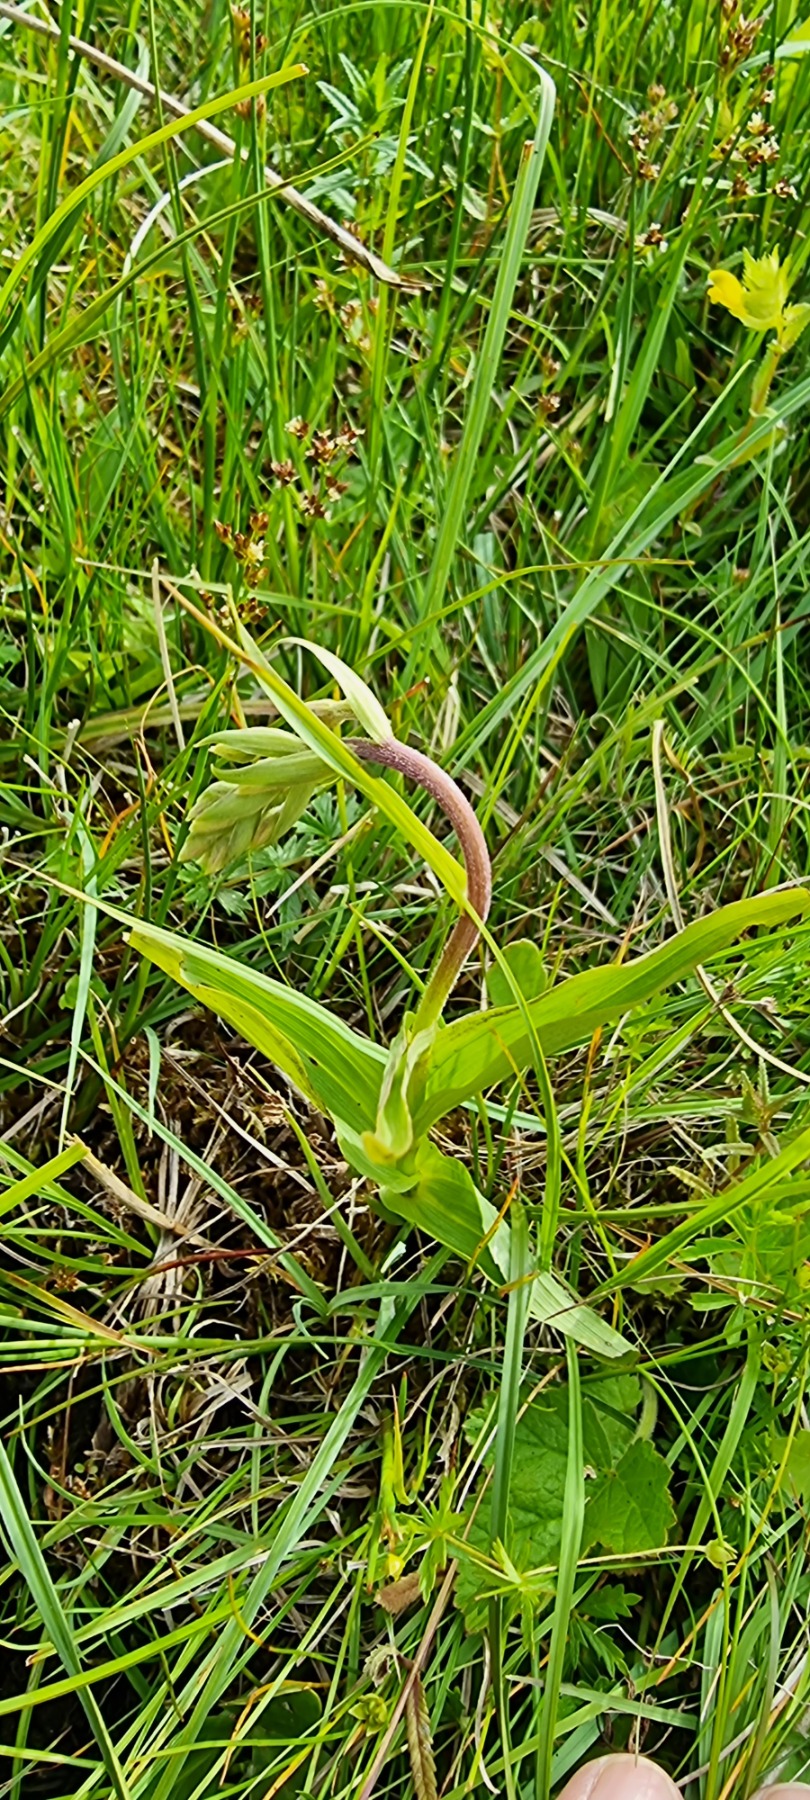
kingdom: Plantae
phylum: Tracheophyta
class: Liliopsida
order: Asparagales
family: Orchidaceae
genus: Epipactis
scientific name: Epipactis palustris
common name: Sump-hullæbe
